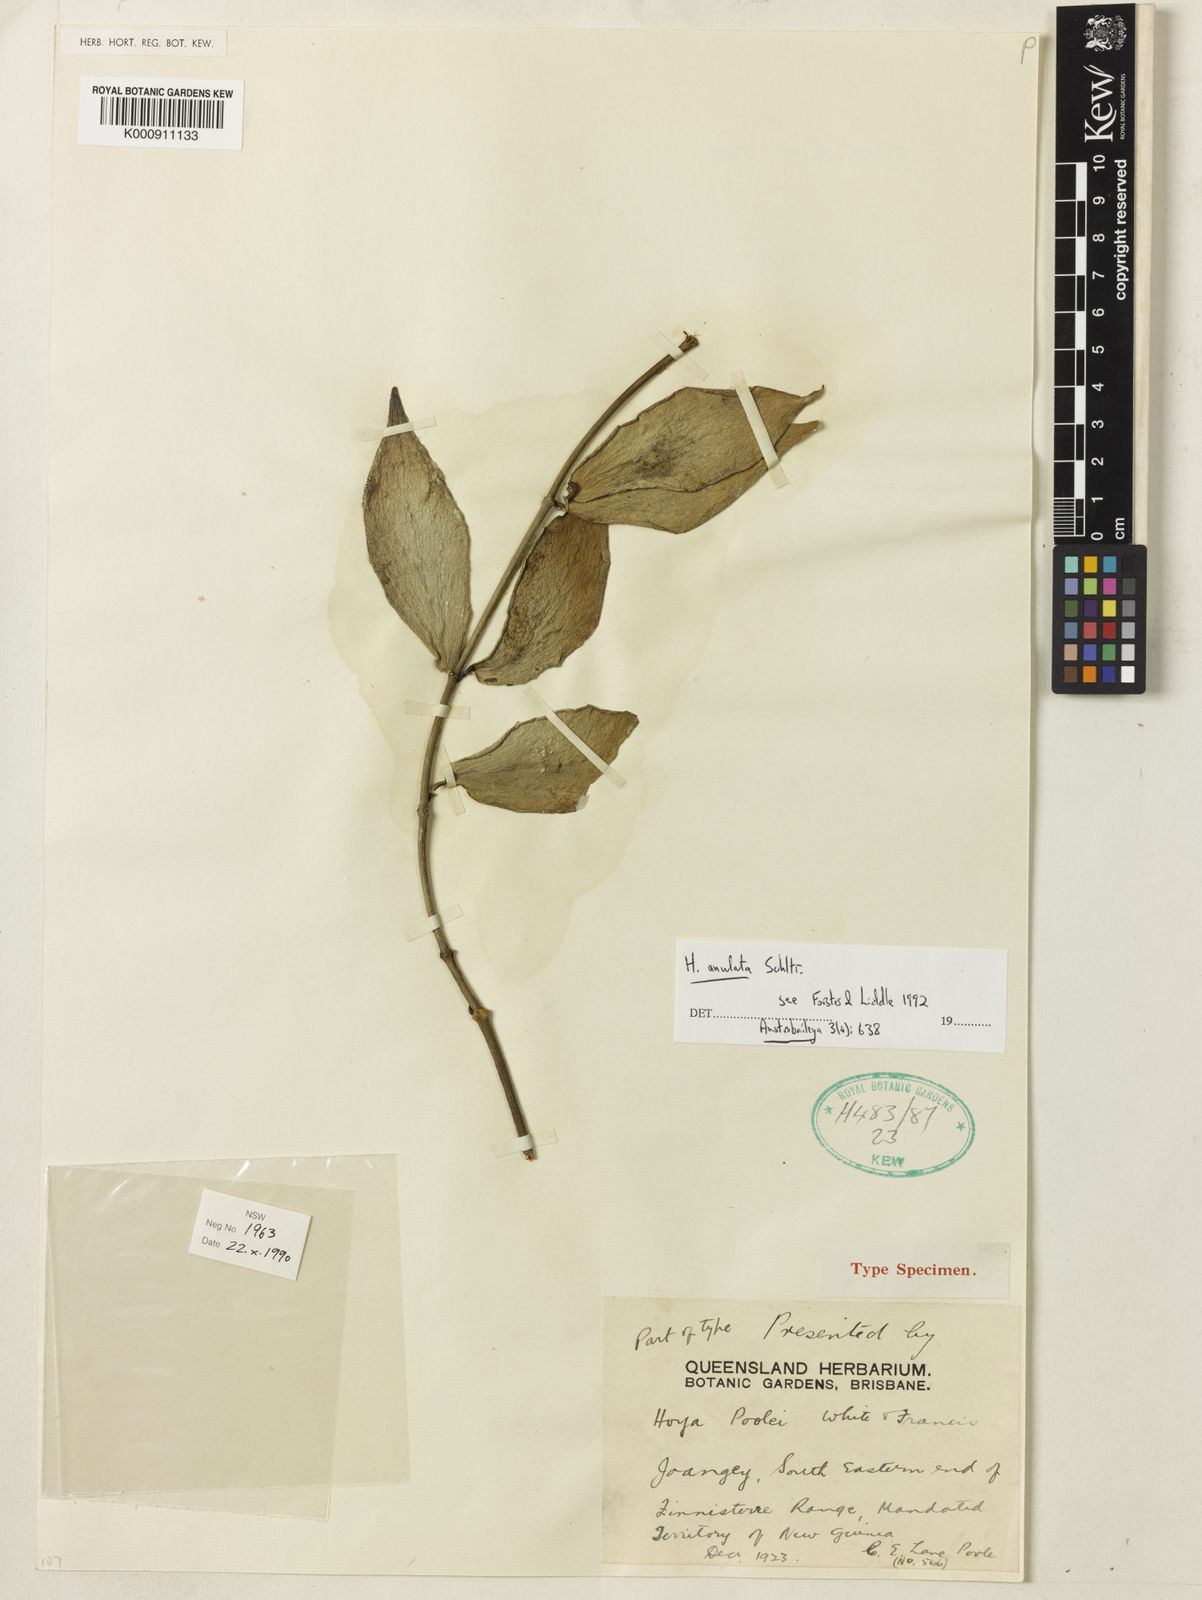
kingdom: Plantae
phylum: Tracheophyta
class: Magnoliopsida
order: Gentianales
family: Apocynaceae
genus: Hoya
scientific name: Hoya anulata
